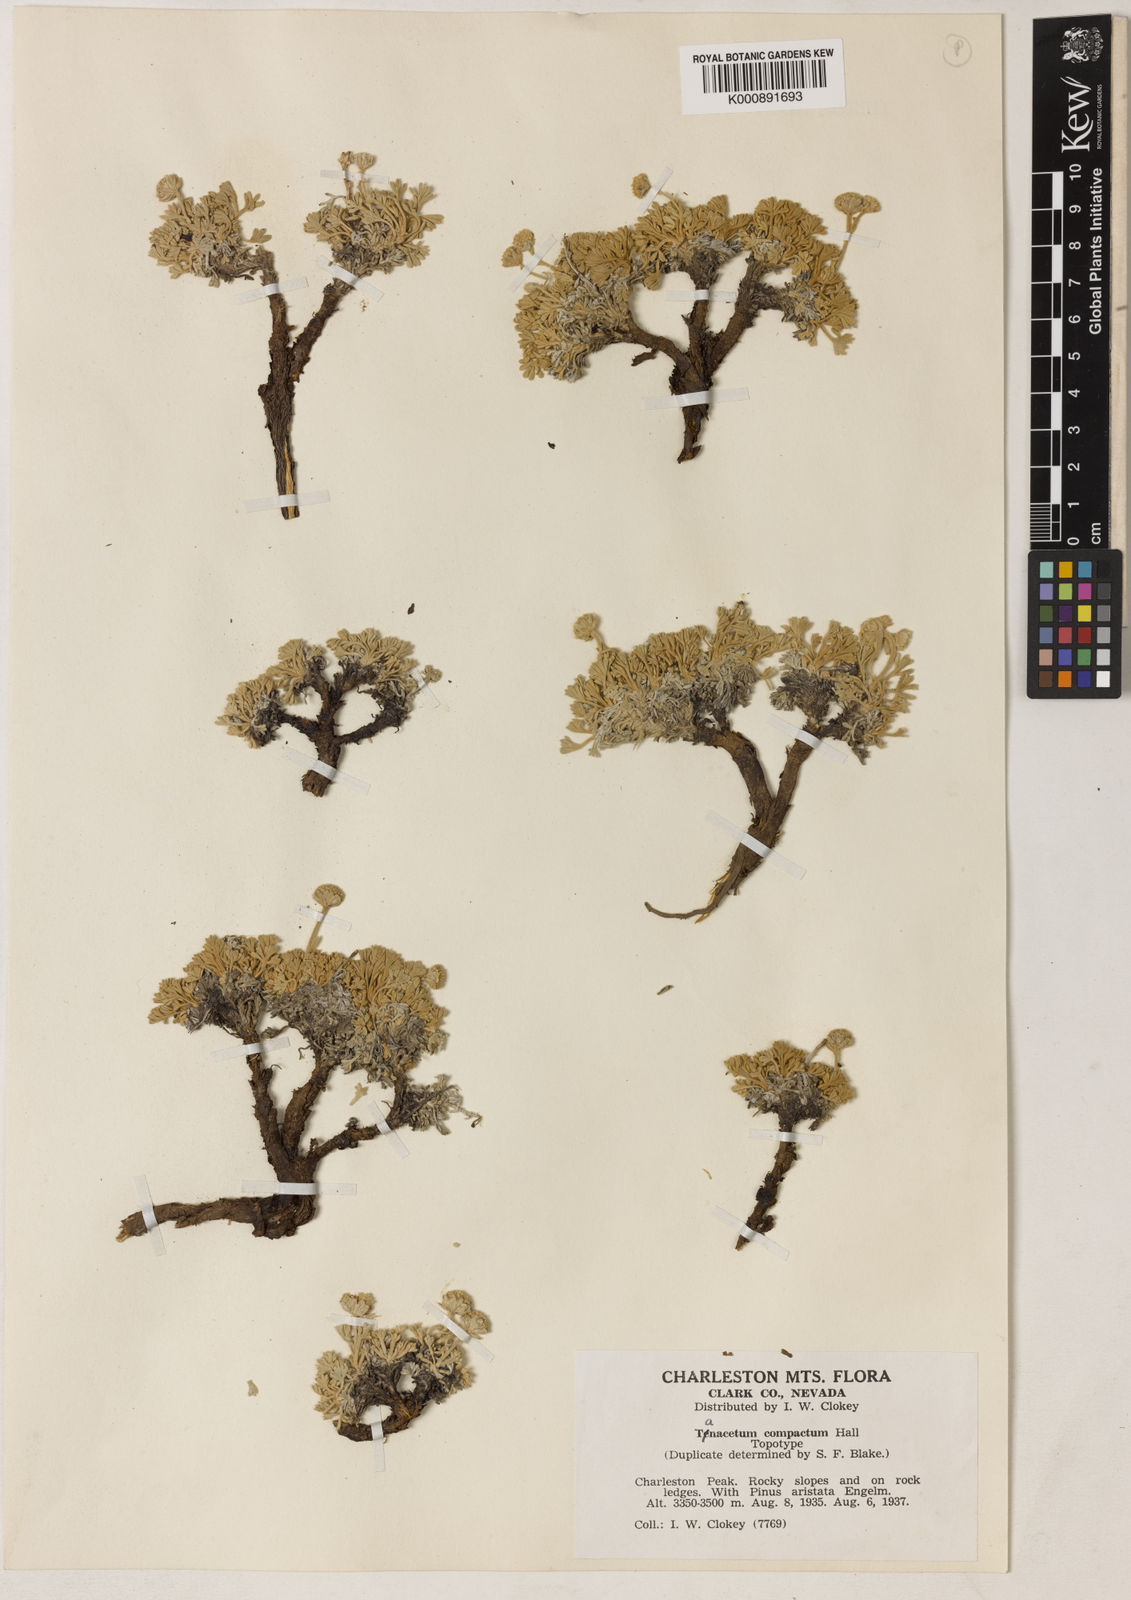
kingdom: Plantae
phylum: Tracheophyta
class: Magnoliopsida
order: Asterales
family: Asteraceae
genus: Artemisia
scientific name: Artemisia
